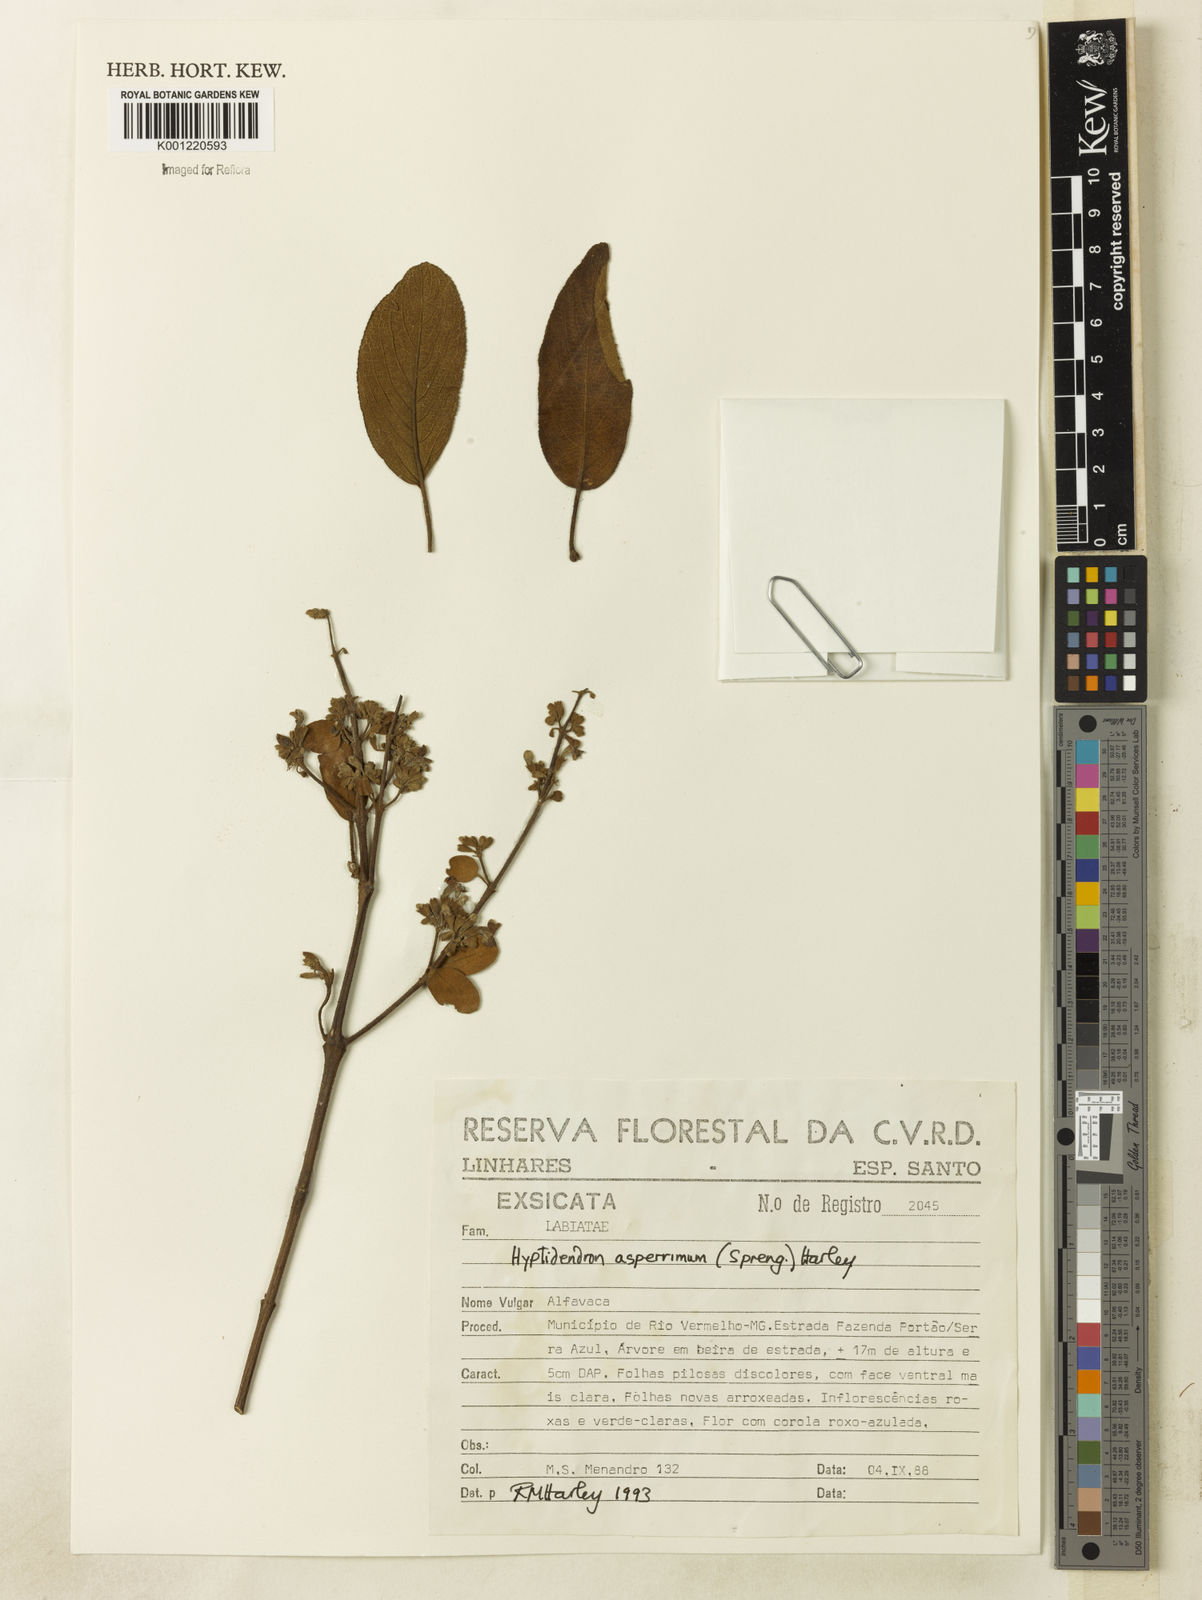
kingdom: Plantae
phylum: Tracheophyta
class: Magnoliopsida
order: Lamiales
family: Lamiaceae
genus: Hyptidendron
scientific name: Hyptidendron asperrimum
